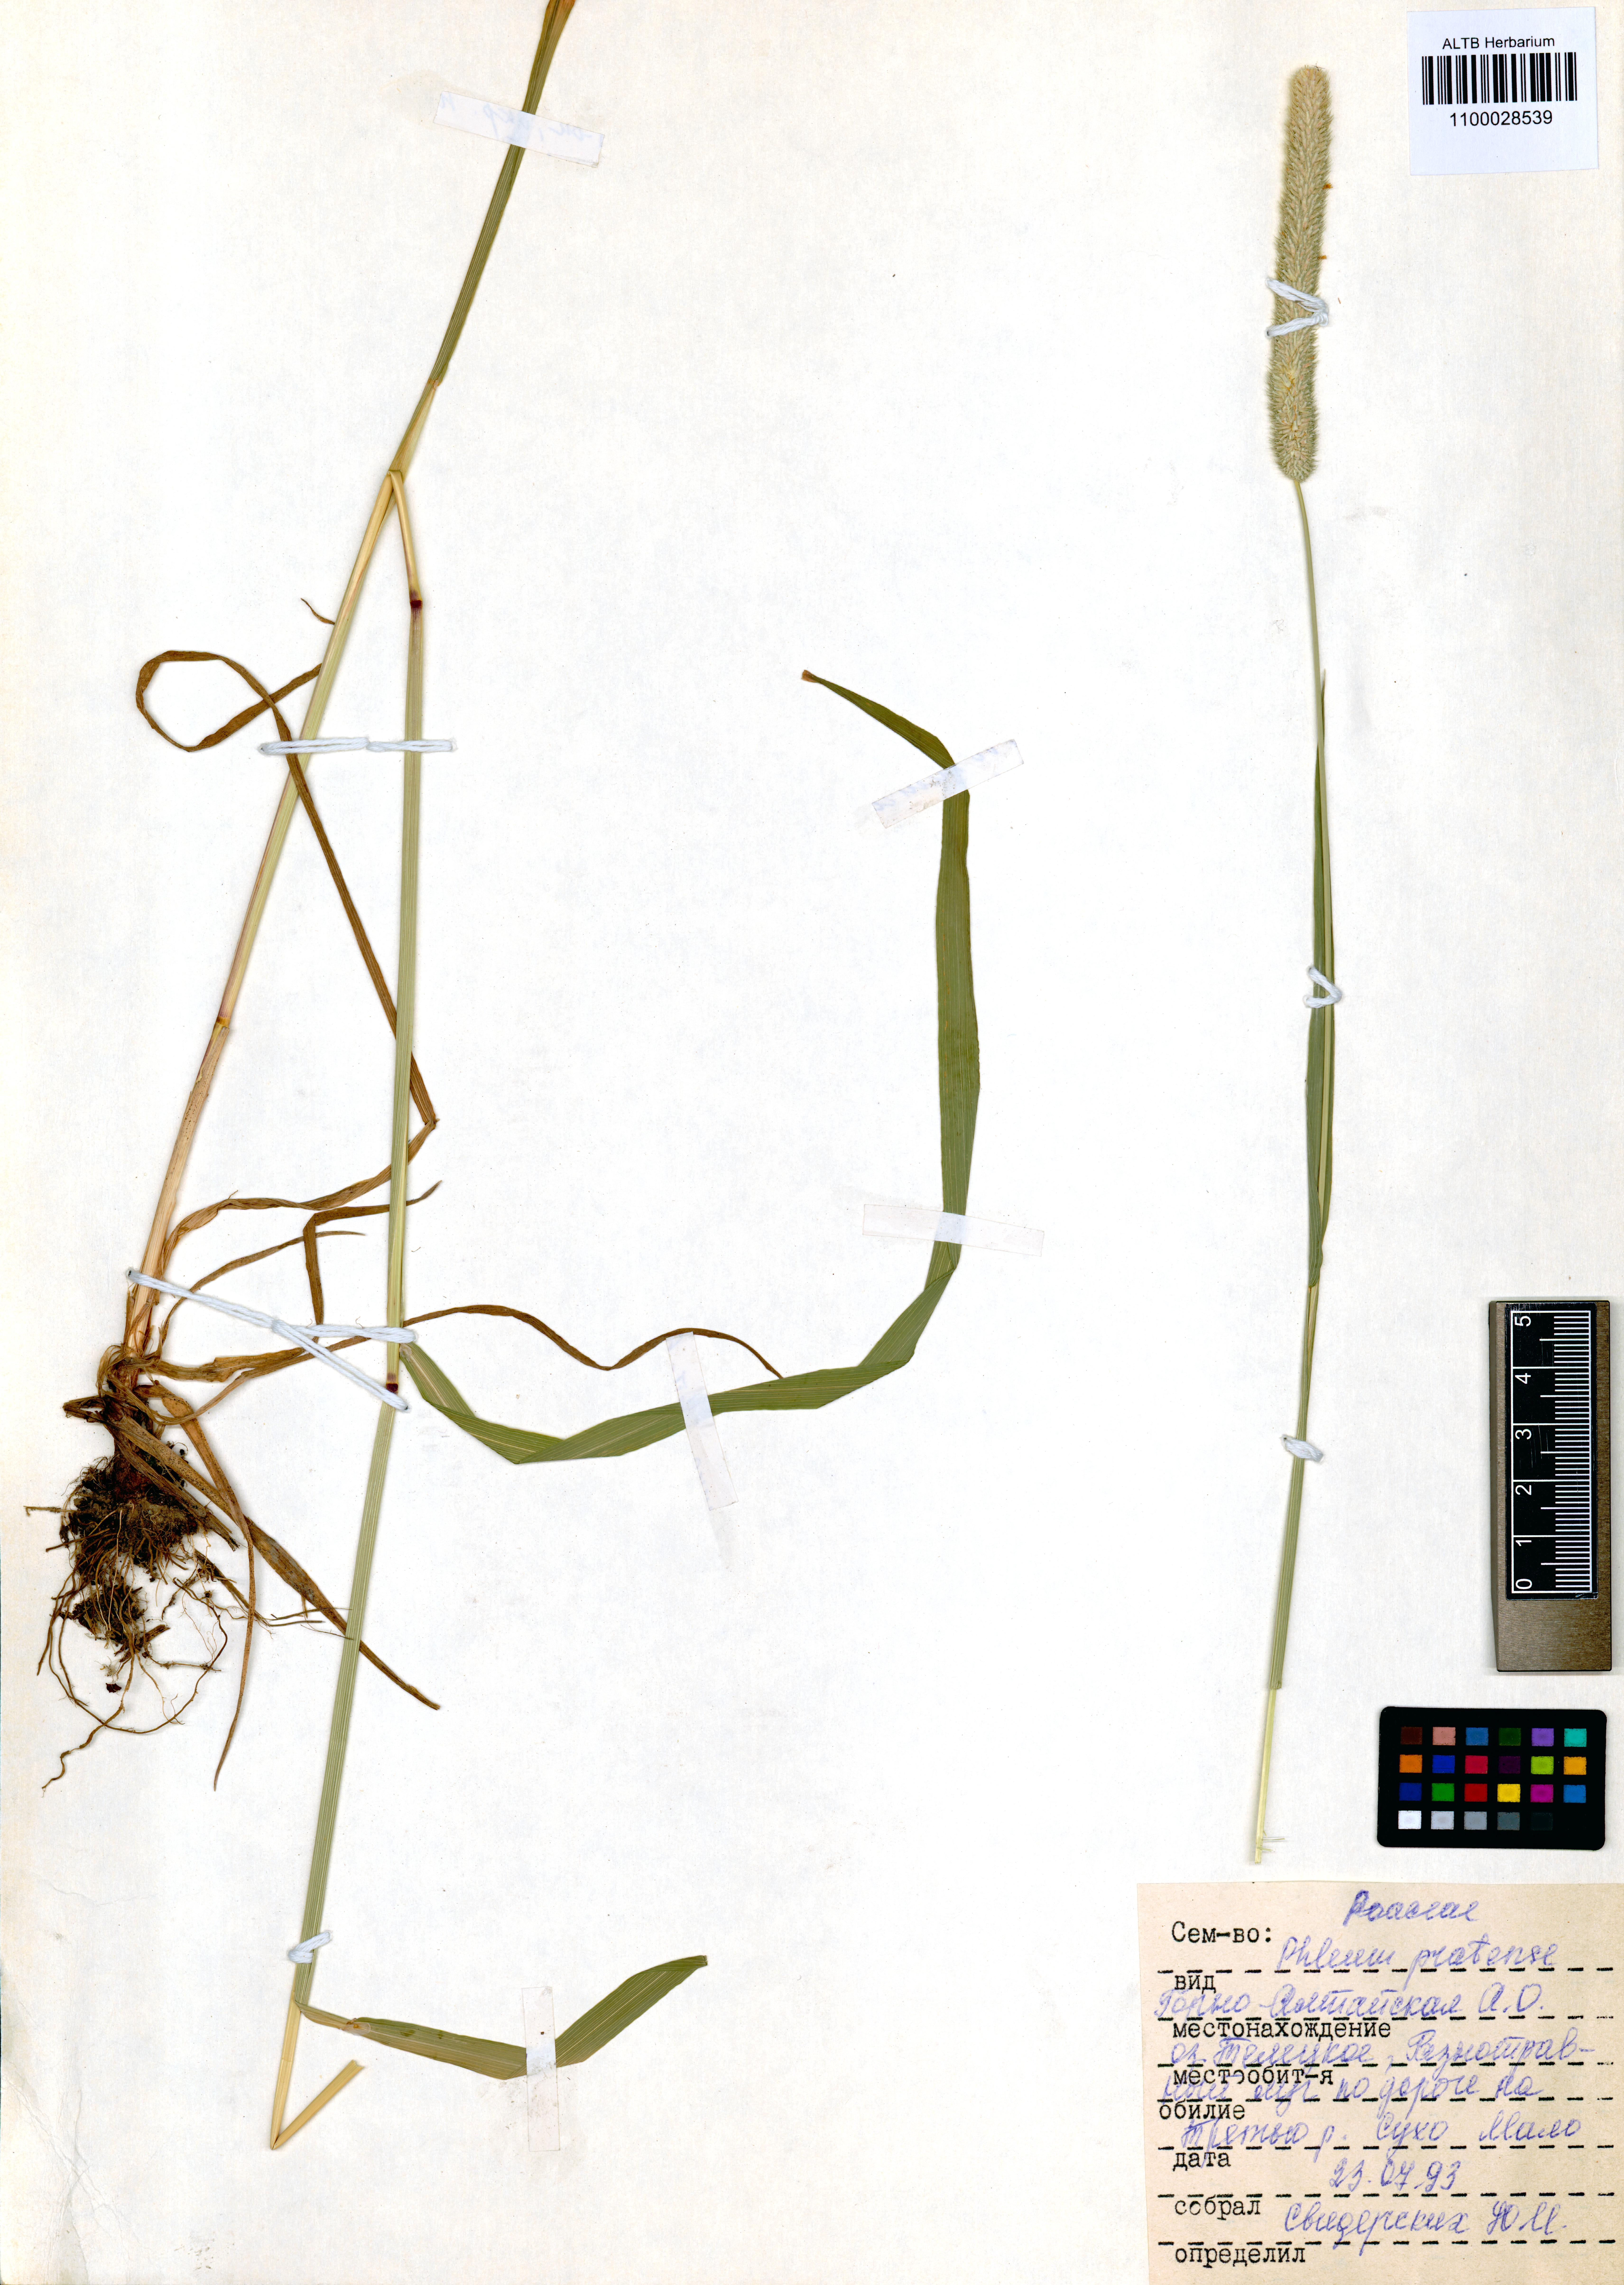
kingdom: Plantae
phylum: Tracheophyta
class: Liliopsida
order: Poales
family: Poaceae
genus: Phleum
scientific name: Phleum pratense
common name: Timothy grass
